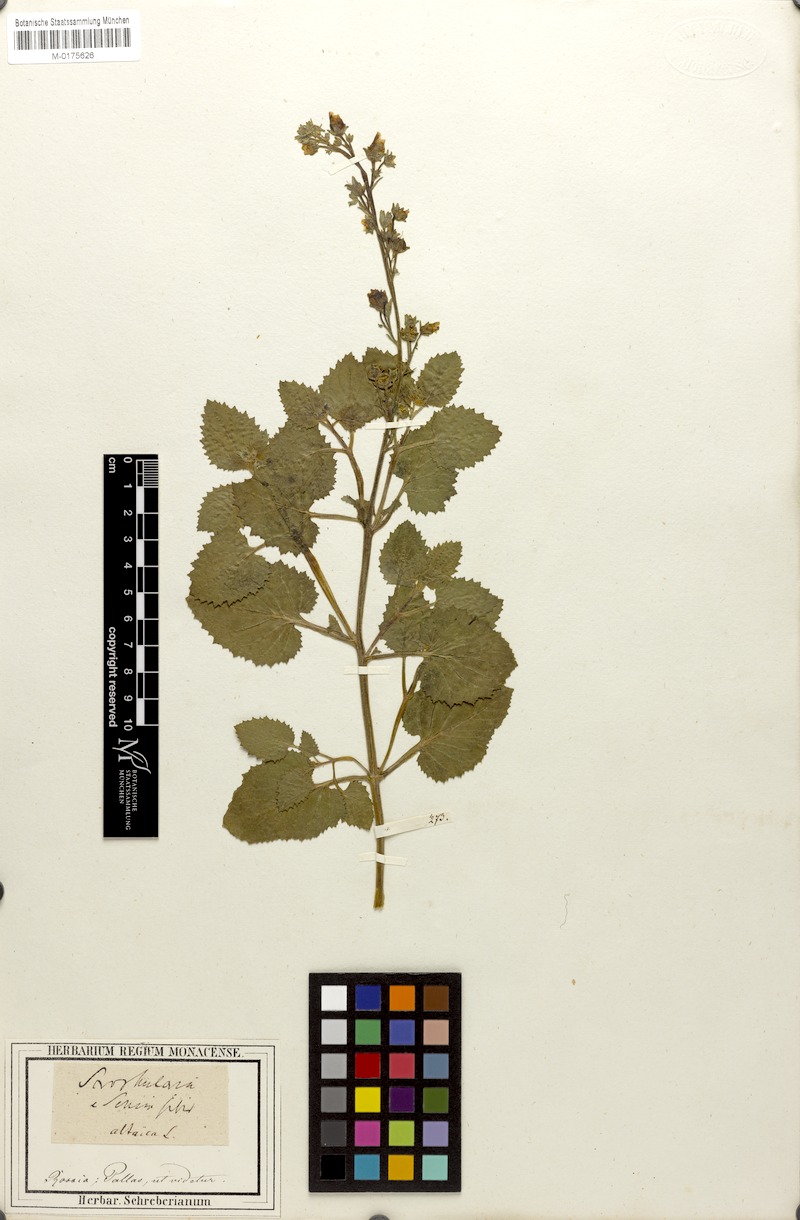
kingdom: Plantae
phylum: Tracheophyta
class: Magnoliopsida
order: Lamiales
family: Scrophulariaceae
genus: Scrophularia
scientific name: Scrophularia altaica
